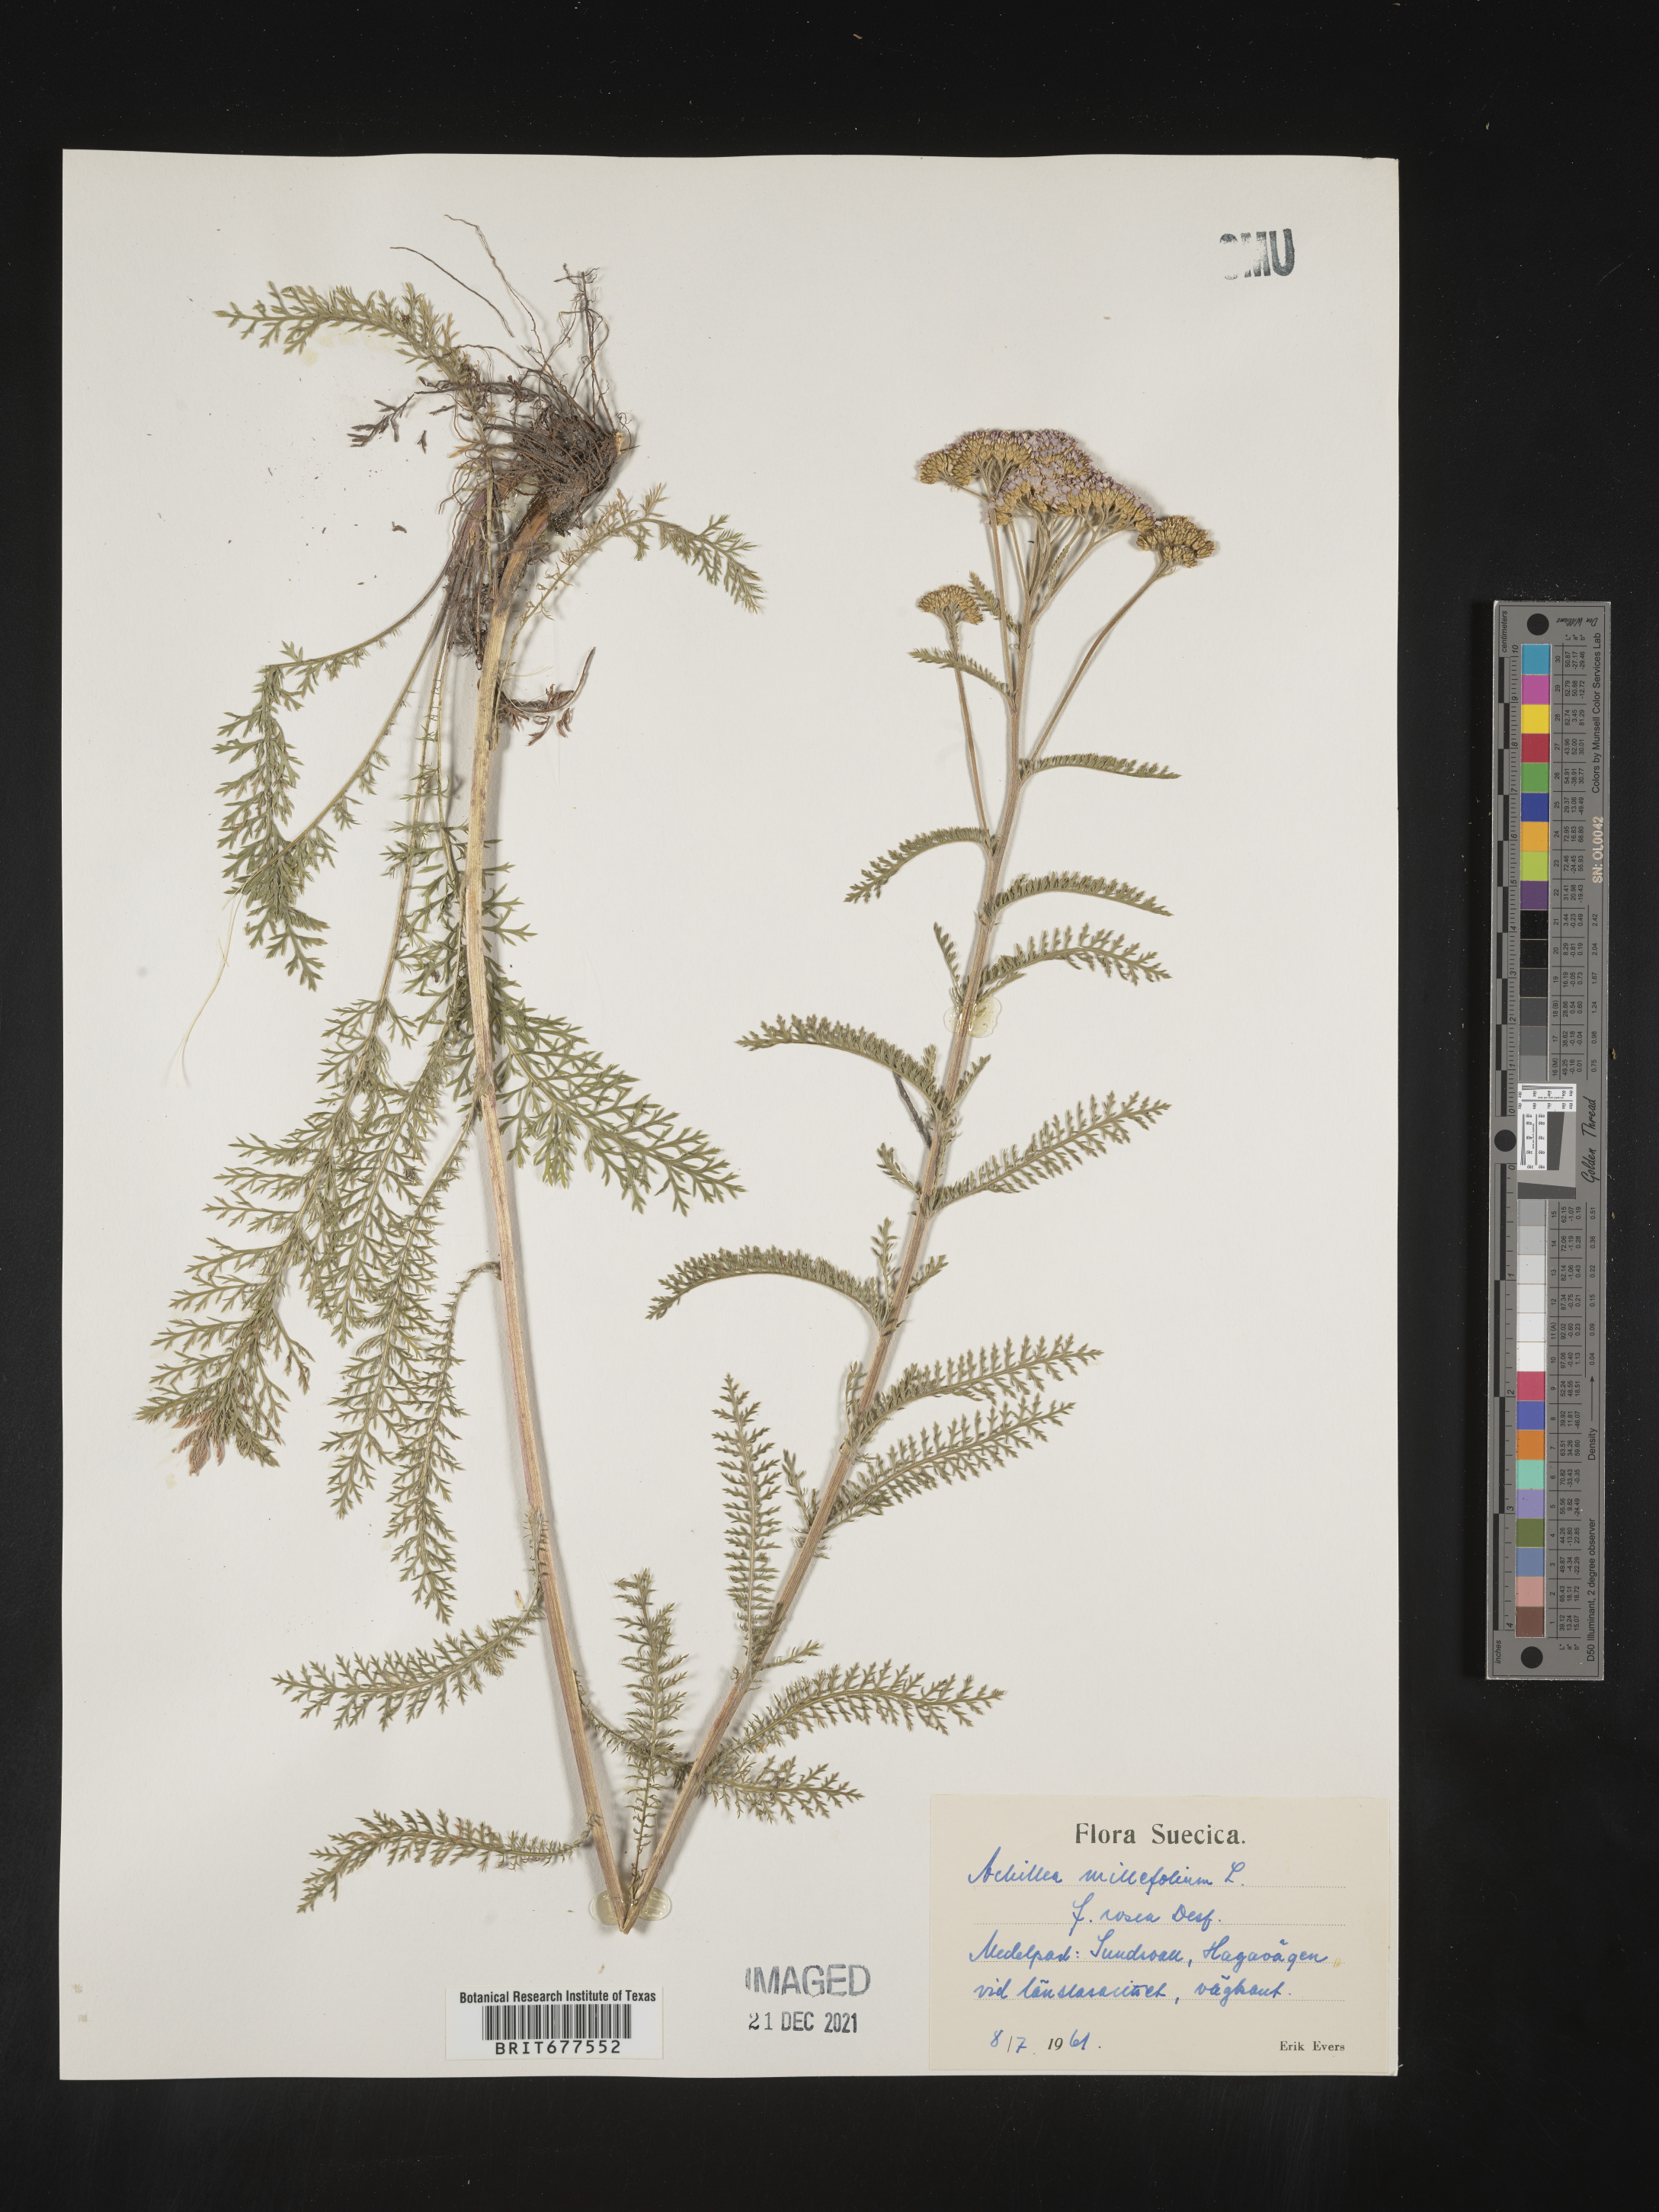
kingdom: Plantae
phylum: Tracheophyta
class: Magnoliopsida
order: Asterales
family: Asteraceae
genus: Achillea
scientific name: Achillea millefolium
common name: Yarrow
